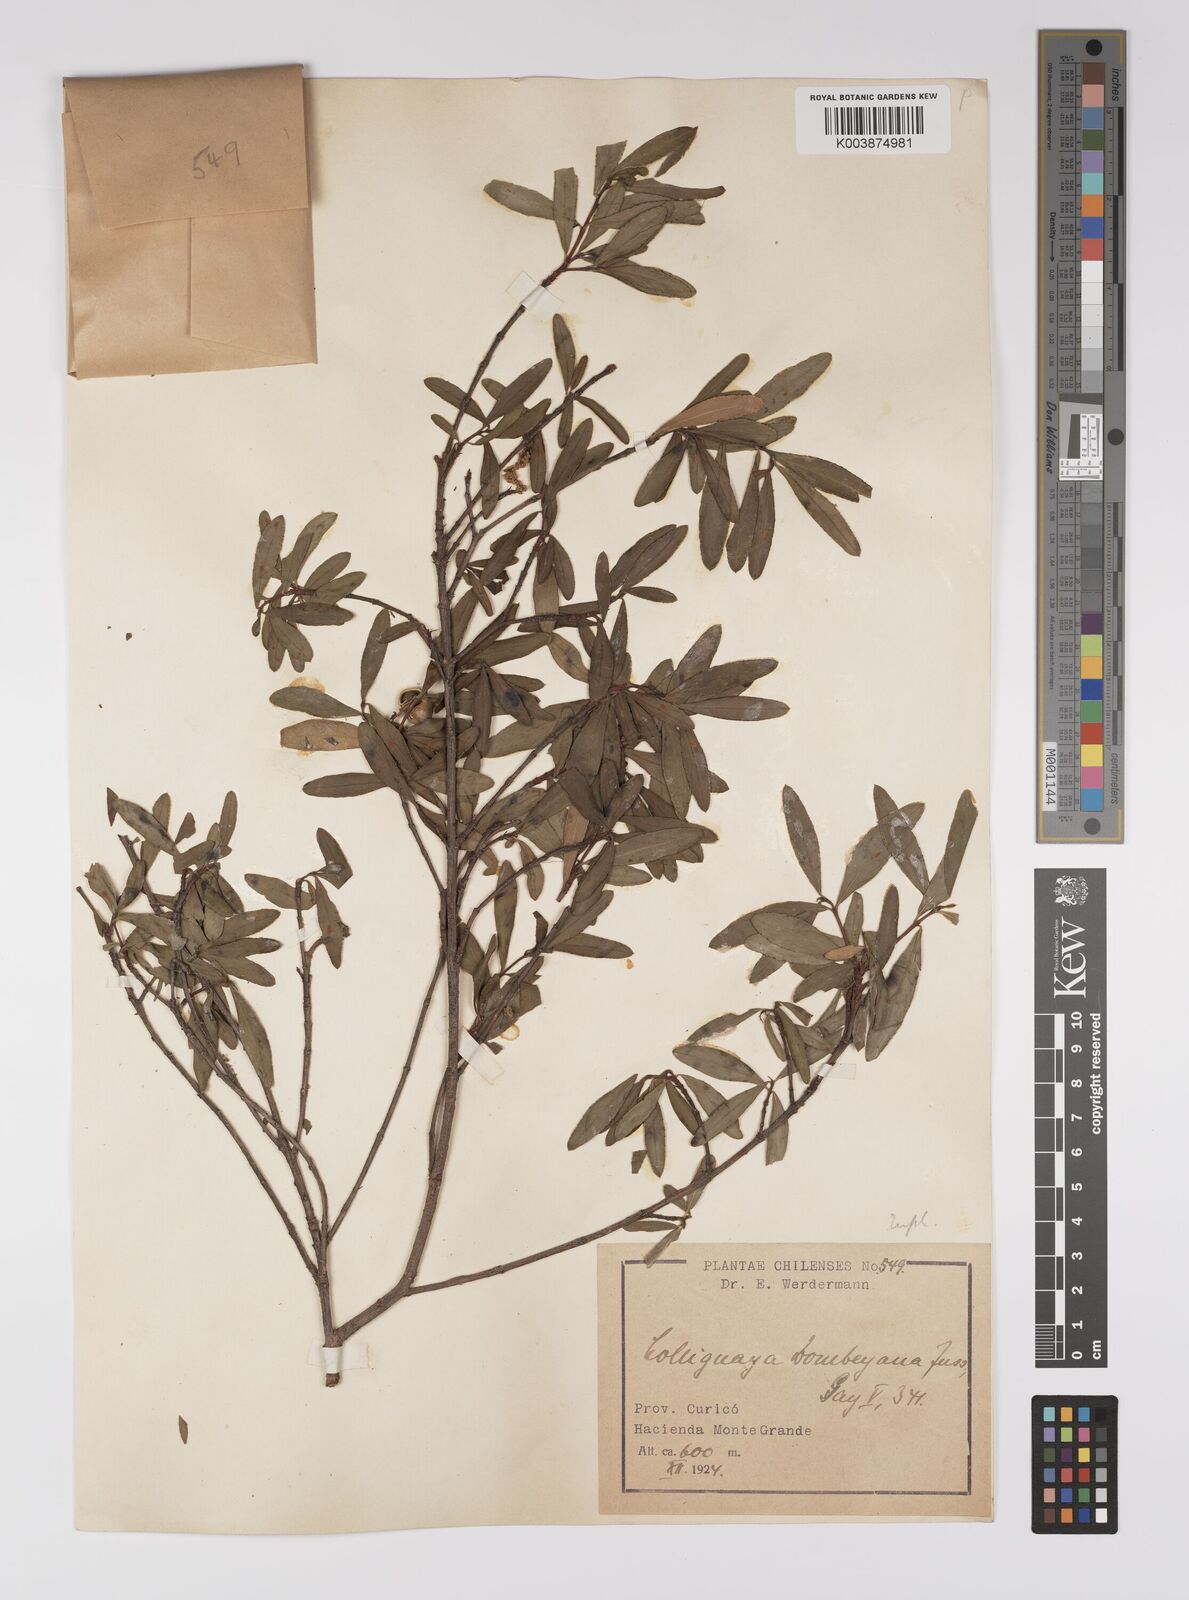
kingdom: Plantae
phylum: Tracheophyta
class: Magnoliopsida
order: Malpighiales
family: Euphorbiaceae
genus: Colliguaja
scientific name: Colliguaja dombeyana
